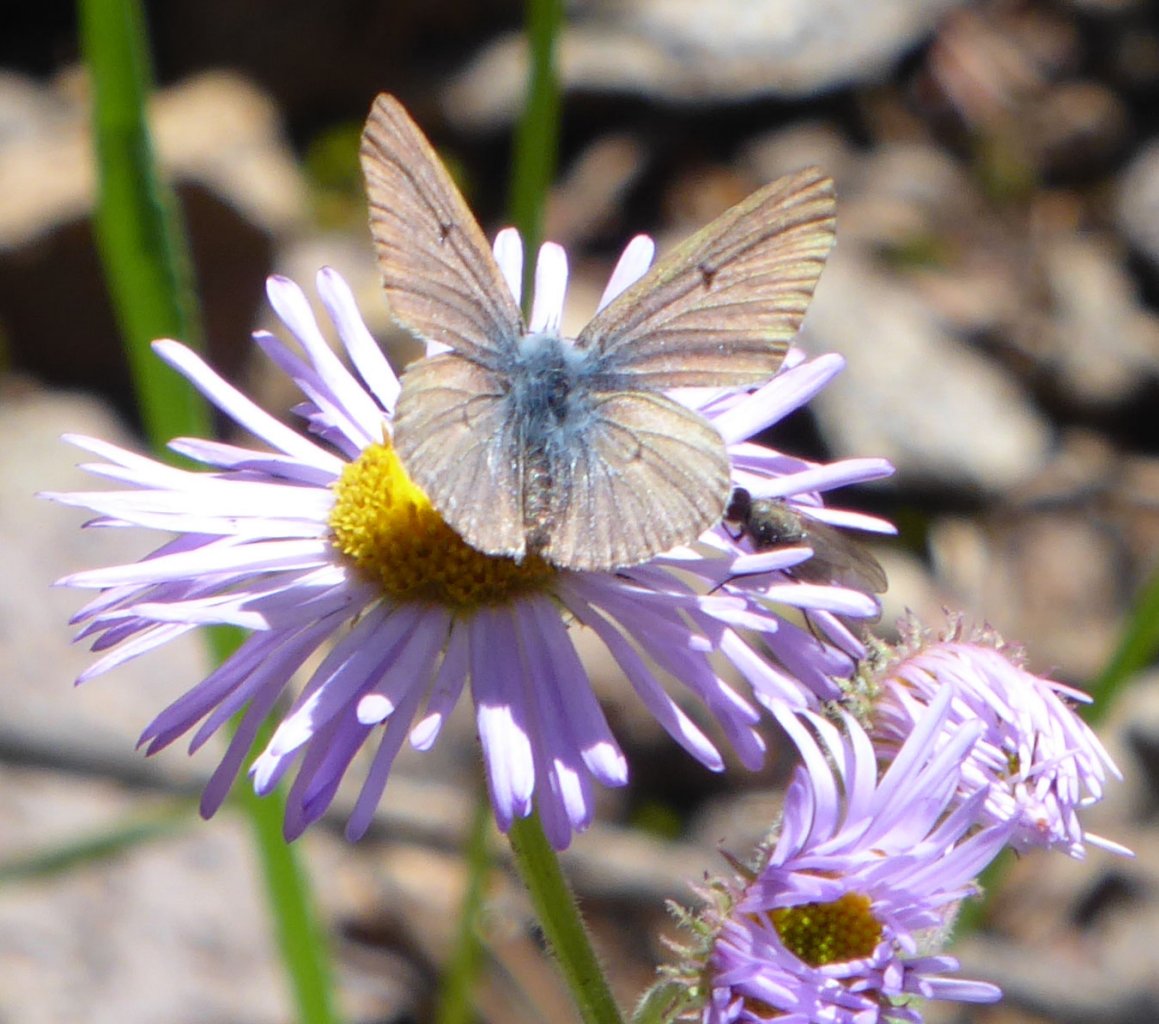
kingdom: Animalia
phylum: Arthropoda
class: Insecta
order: Lepidoptera
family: Lycaenidae
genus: Agriades
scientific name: Agriades glandon
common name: Arctic Blue
